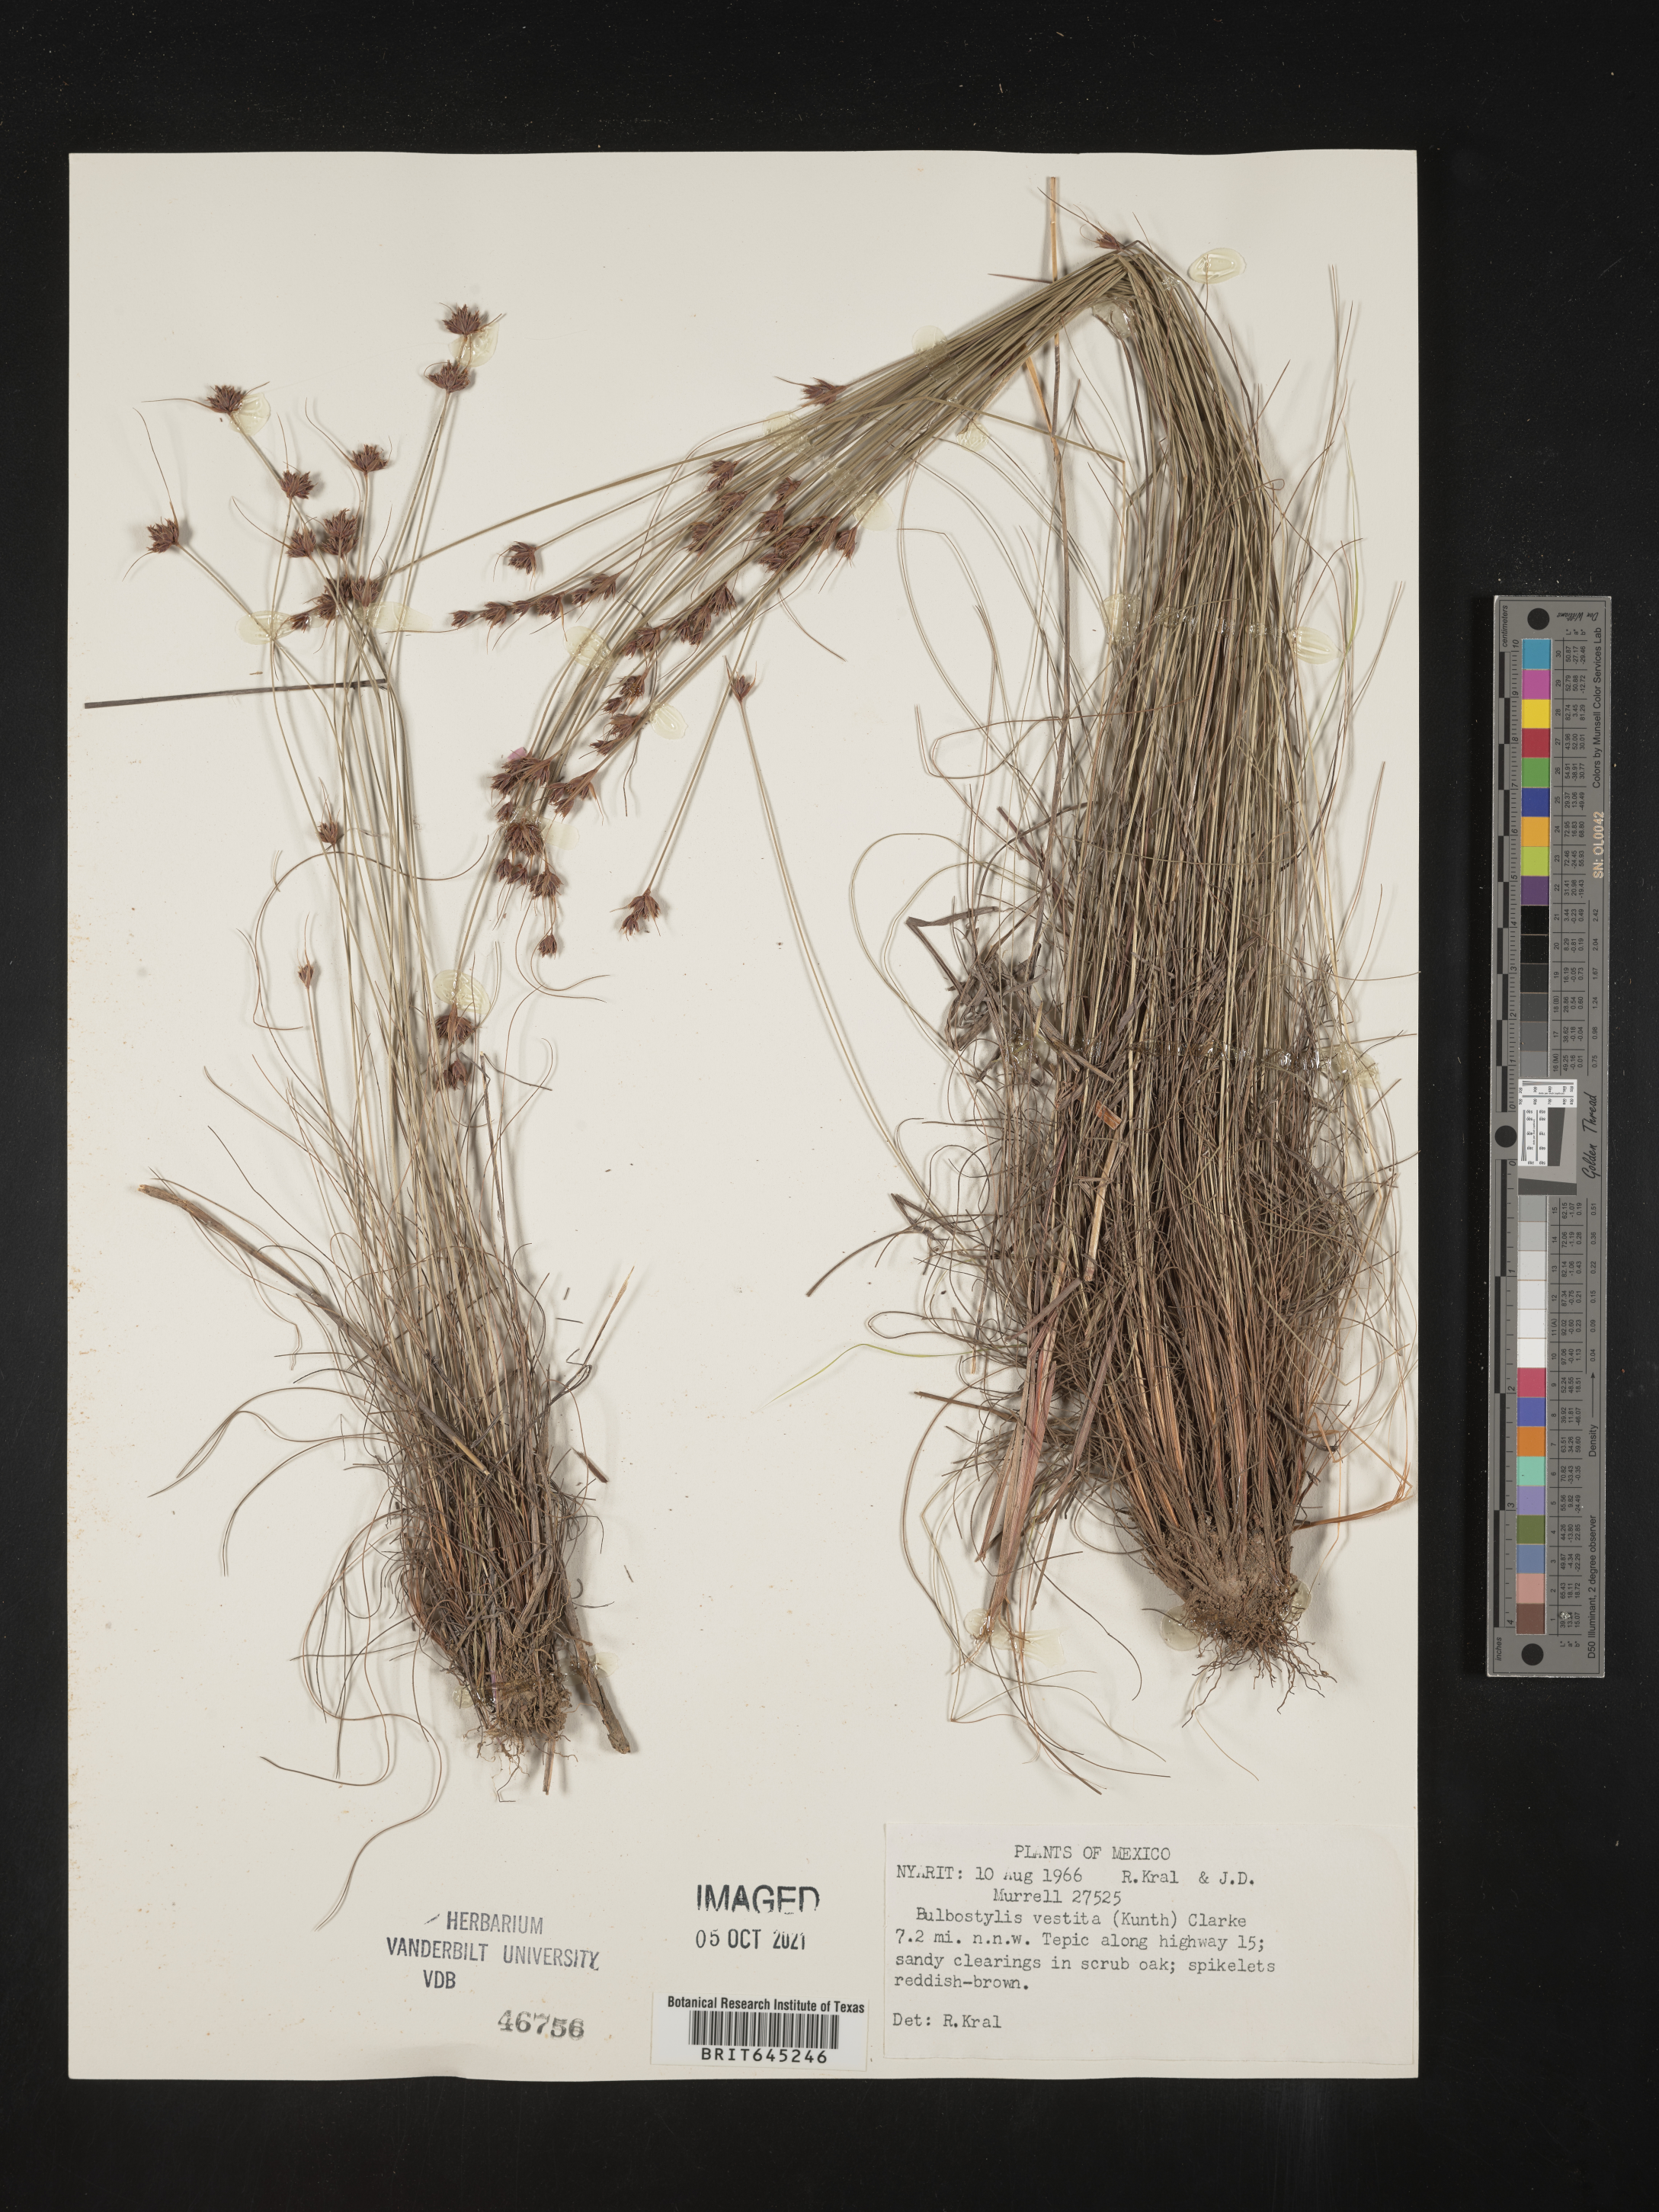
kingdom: Plantae
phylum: Tracheophyta
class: Liliopsida
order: Poales
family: Cyperaceae
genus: Bulbostylis
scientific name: Bulbostylis vestita
